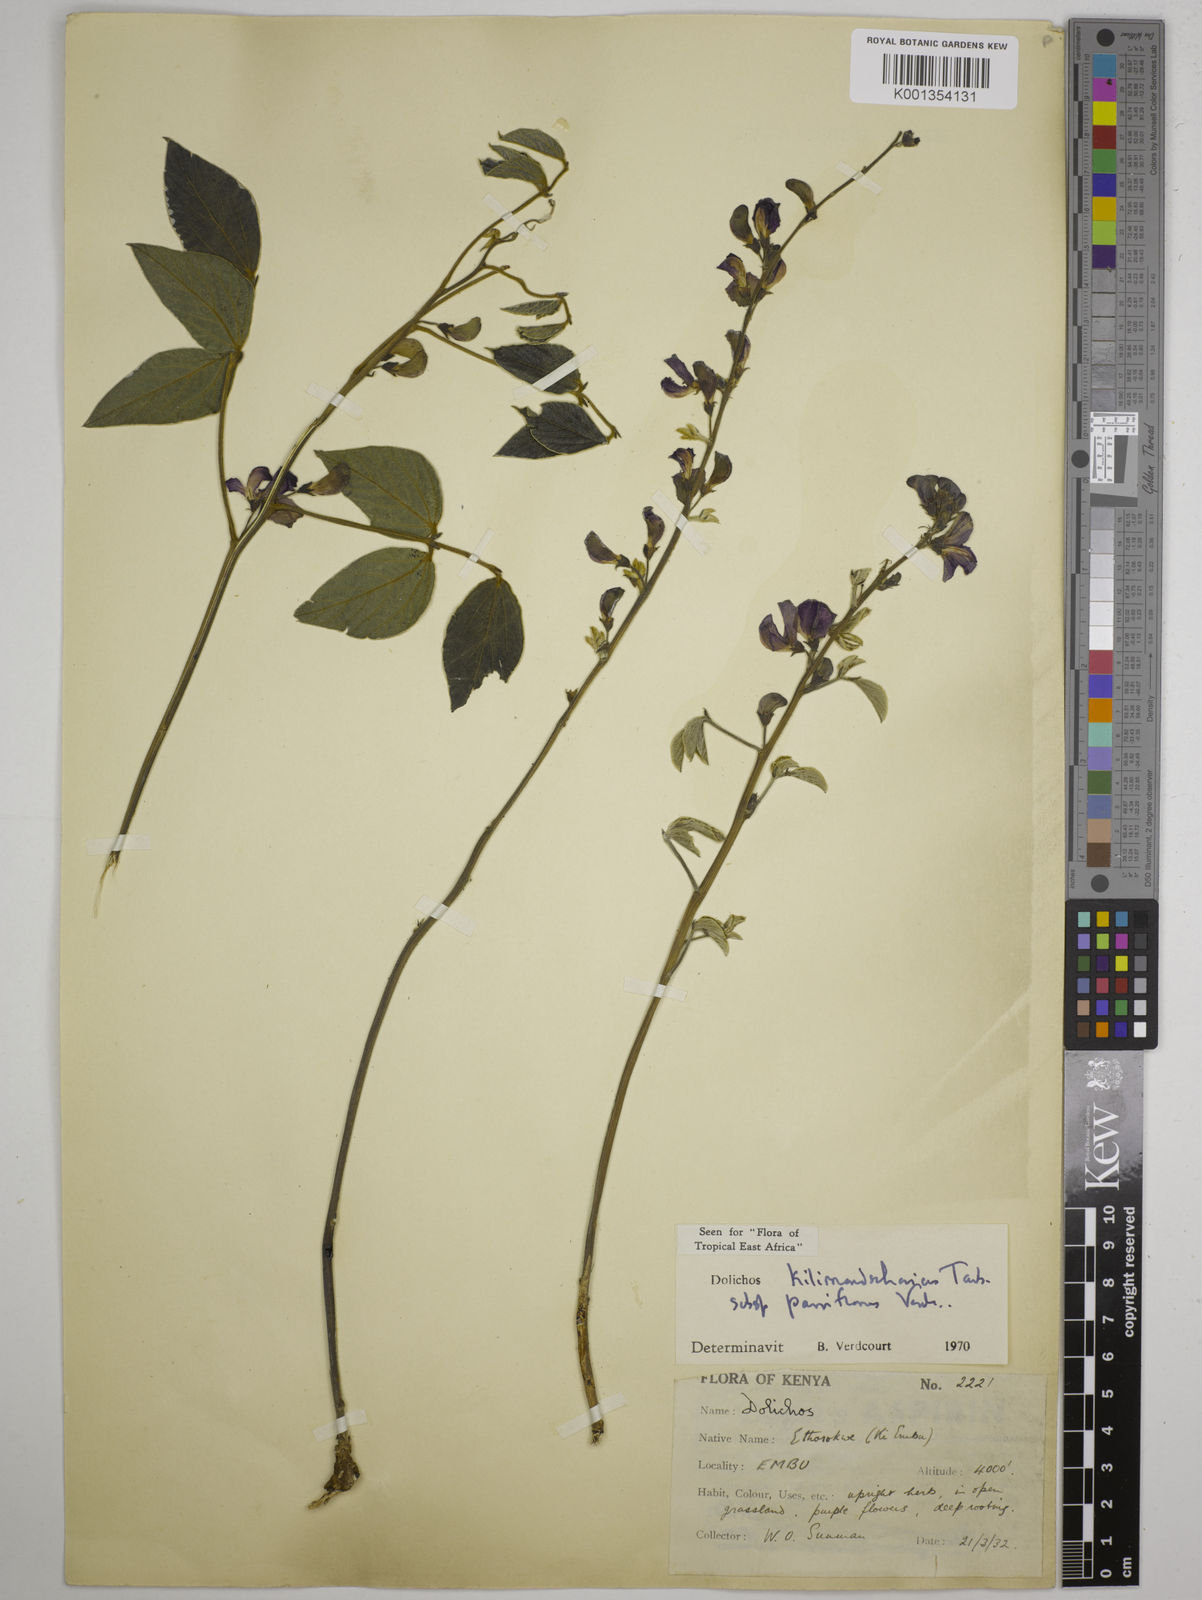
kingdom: Plantae
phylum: Tracheophyta
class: Magnoliopsida
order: Fabales
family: Fabaceae
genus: Dolichos
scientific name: Dolichos
